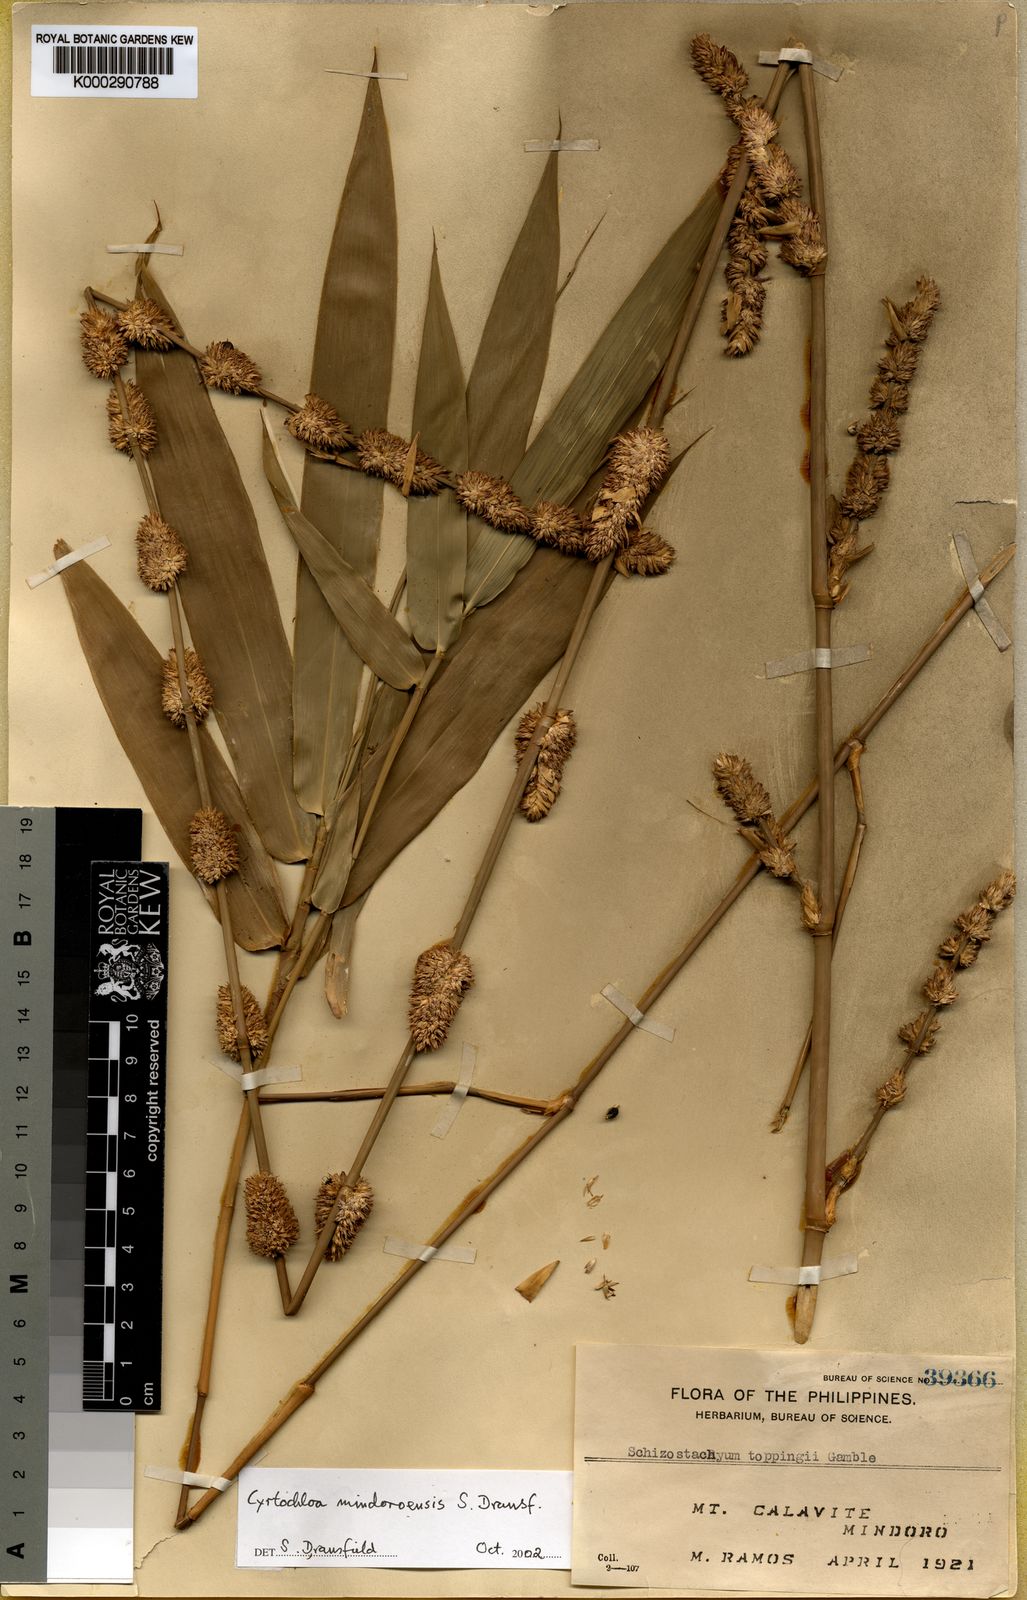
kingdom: Plantae
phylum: Tracheophyta
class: Liliopsida
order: Poales
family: Poaceae
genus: Cyrtochloa
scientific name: Cyrtochloa mindoroensis
